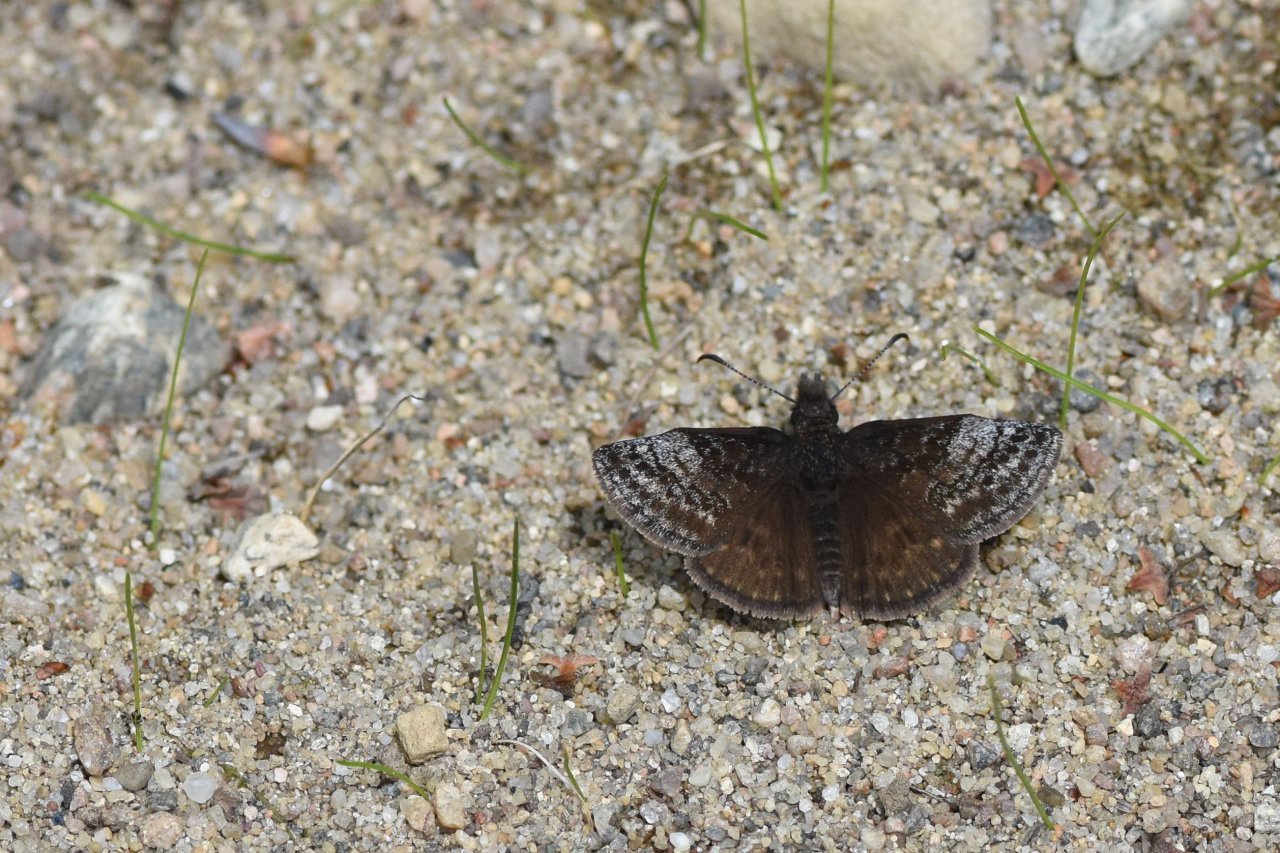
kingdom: Animalia
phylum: Arthropoda
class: Insecta
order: Lepidoptera
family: Hesperiidae
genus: Erynnis
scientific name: Erynnis icelus
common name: Dreamy Duskywing
